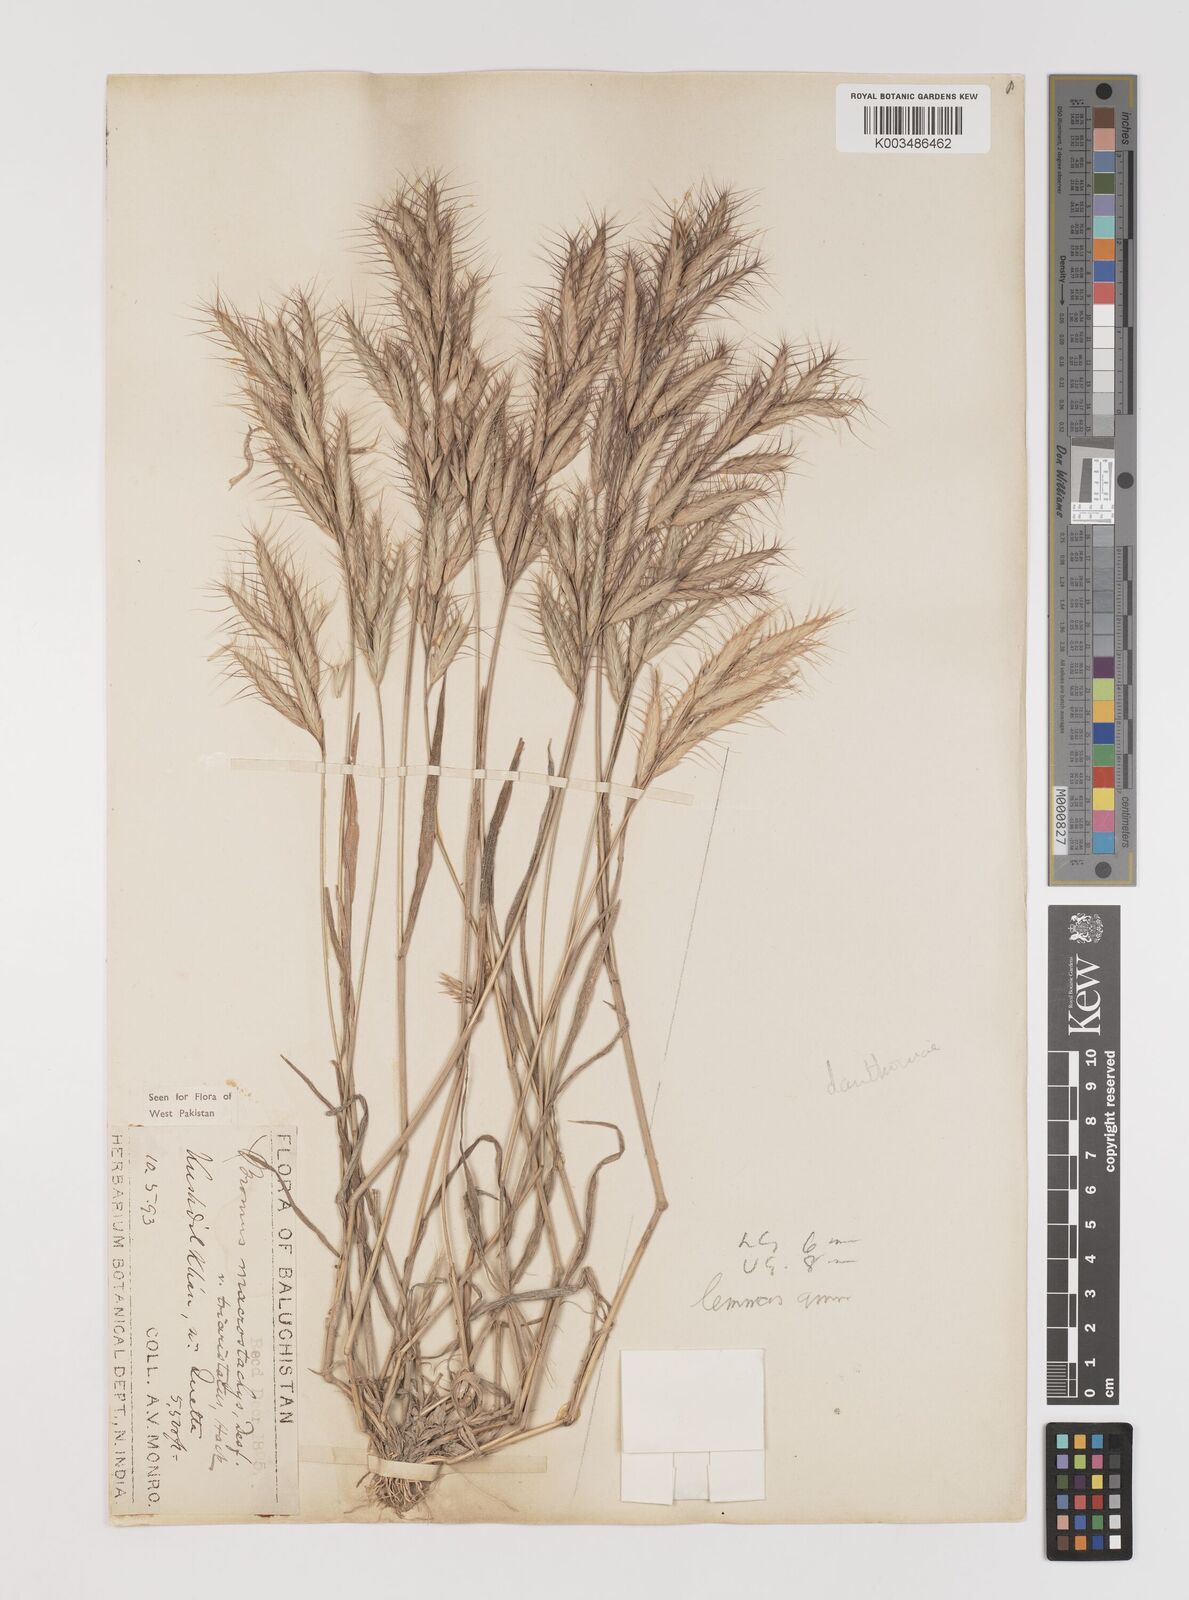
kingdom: Plantae
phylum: Tracheophyta
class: Liliopsida
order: Poales
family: Poaceae
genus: Bromus
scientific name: Bromus danthoniae
